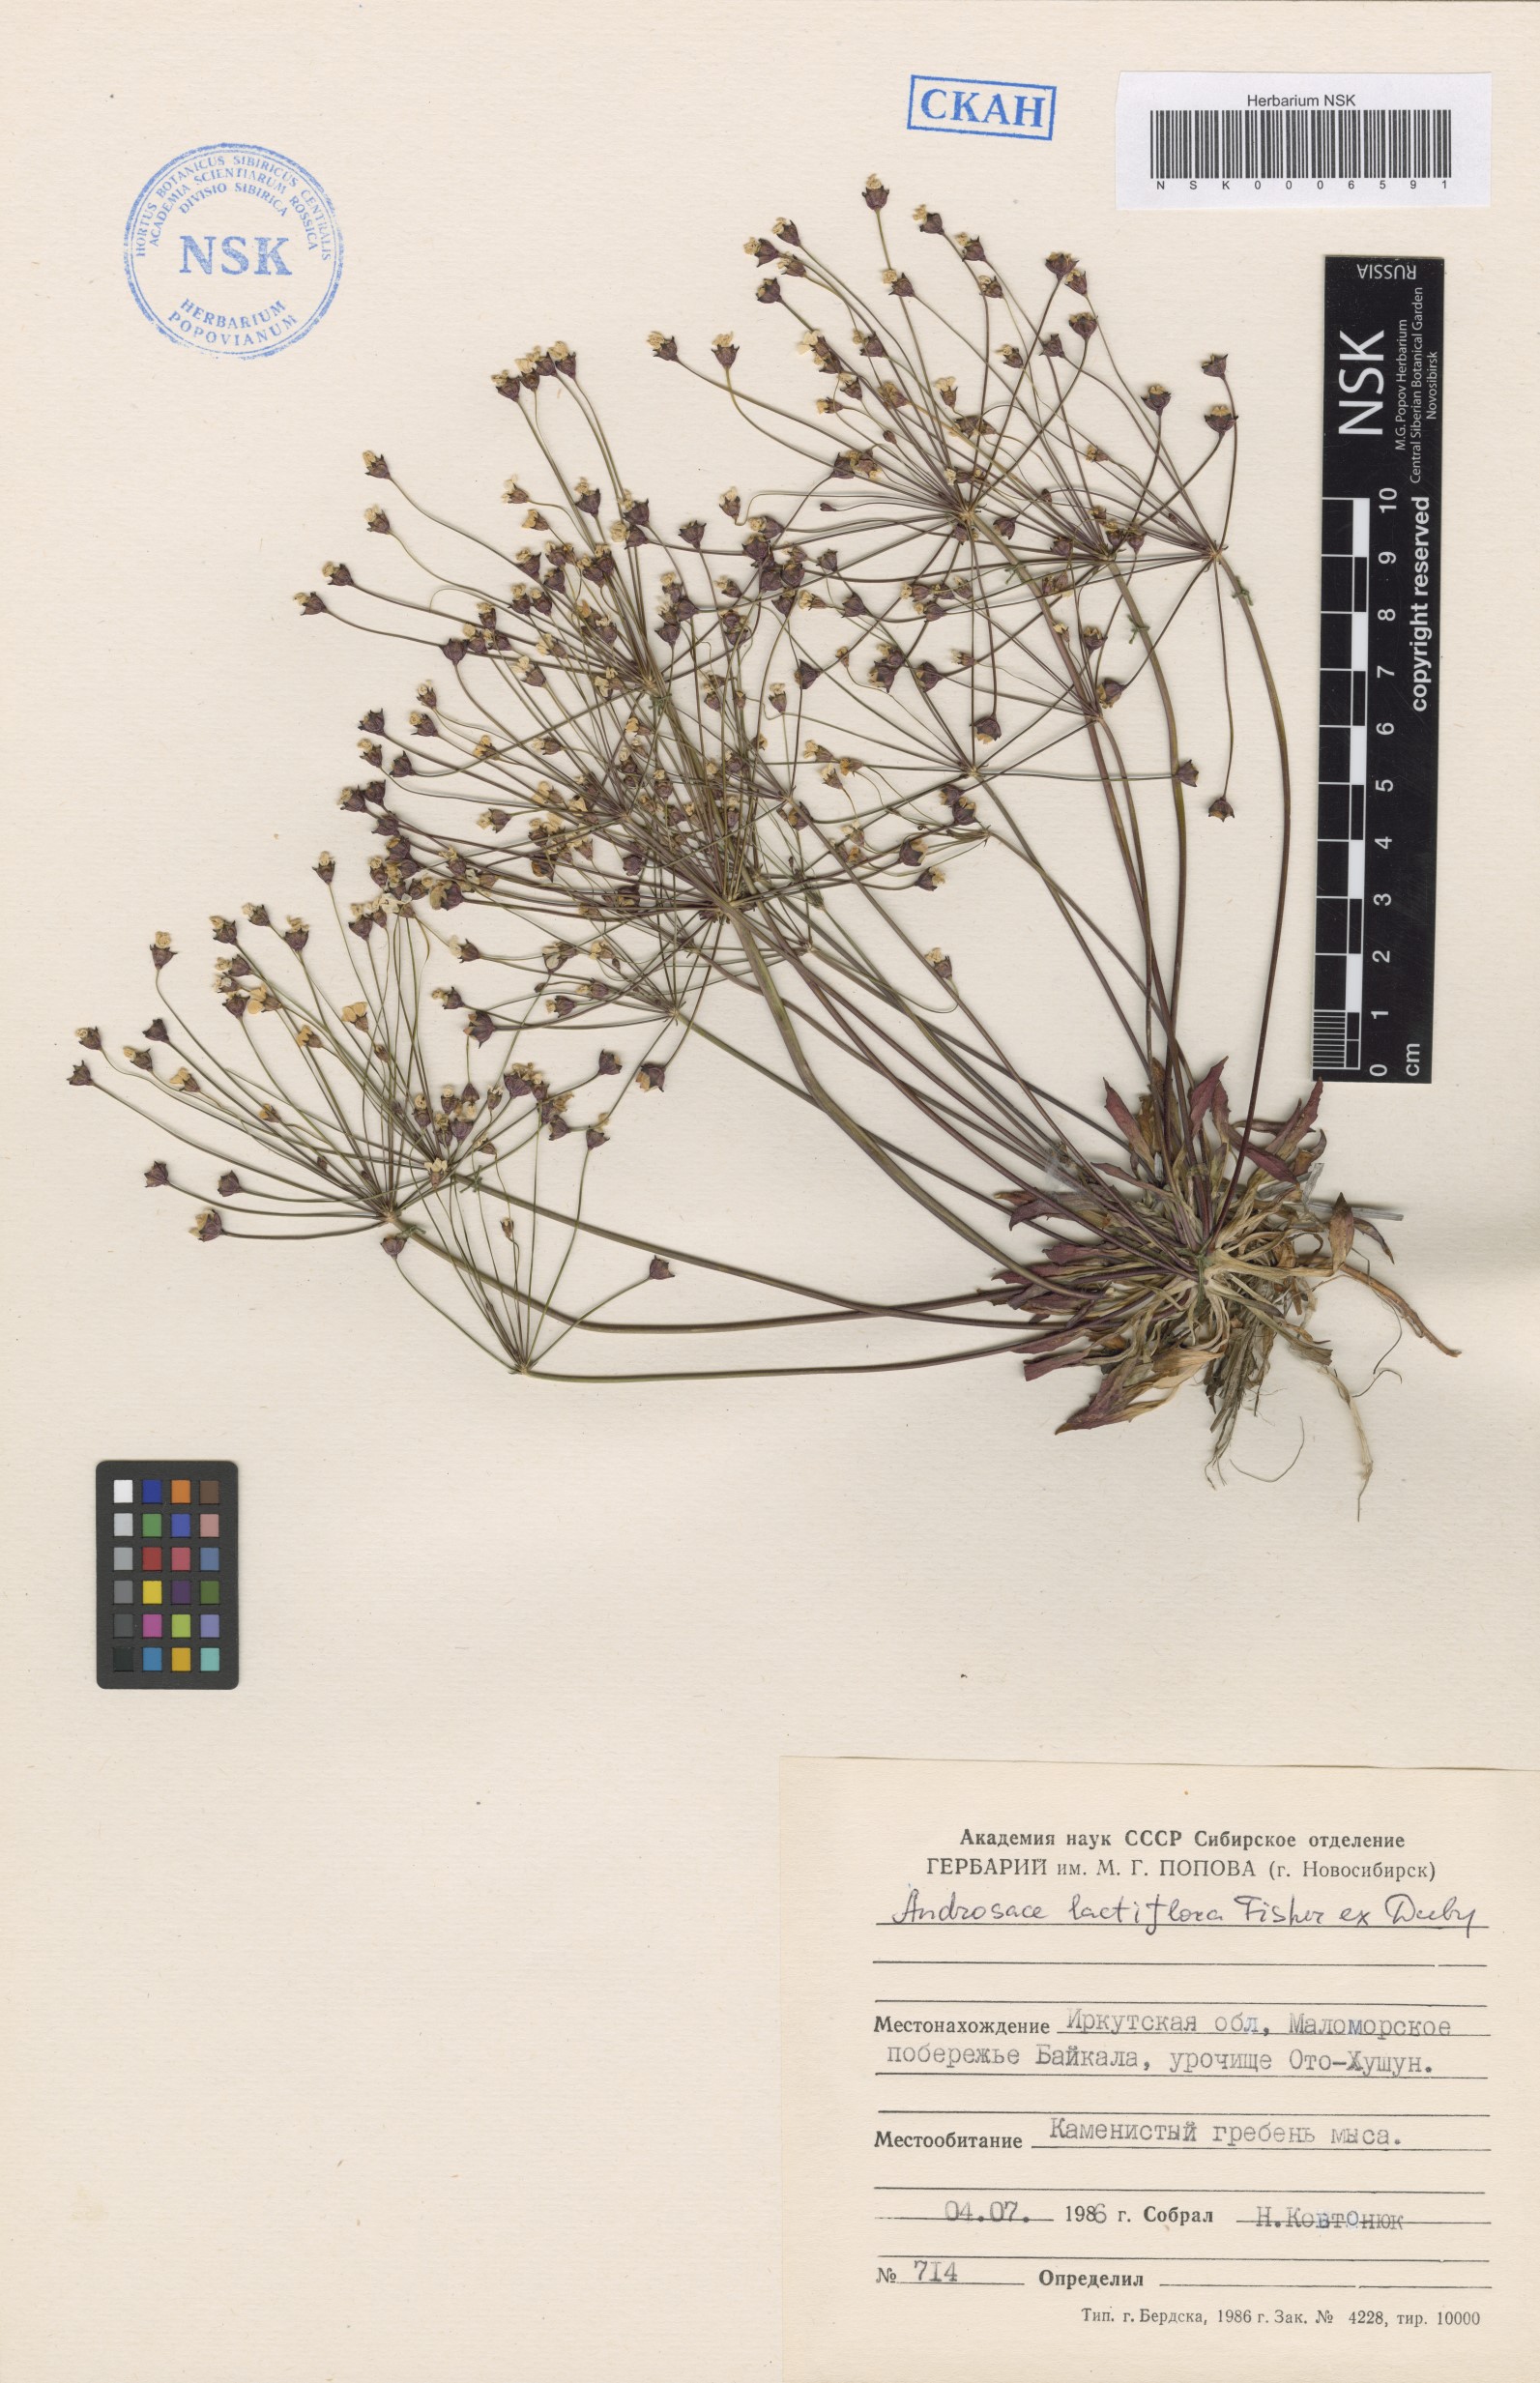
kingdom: Plantae
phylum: Tracheophyta
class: Magnoliopsida
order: Ericales
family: Primulaceae
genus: Androsace
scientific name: Androsace lactiflora
